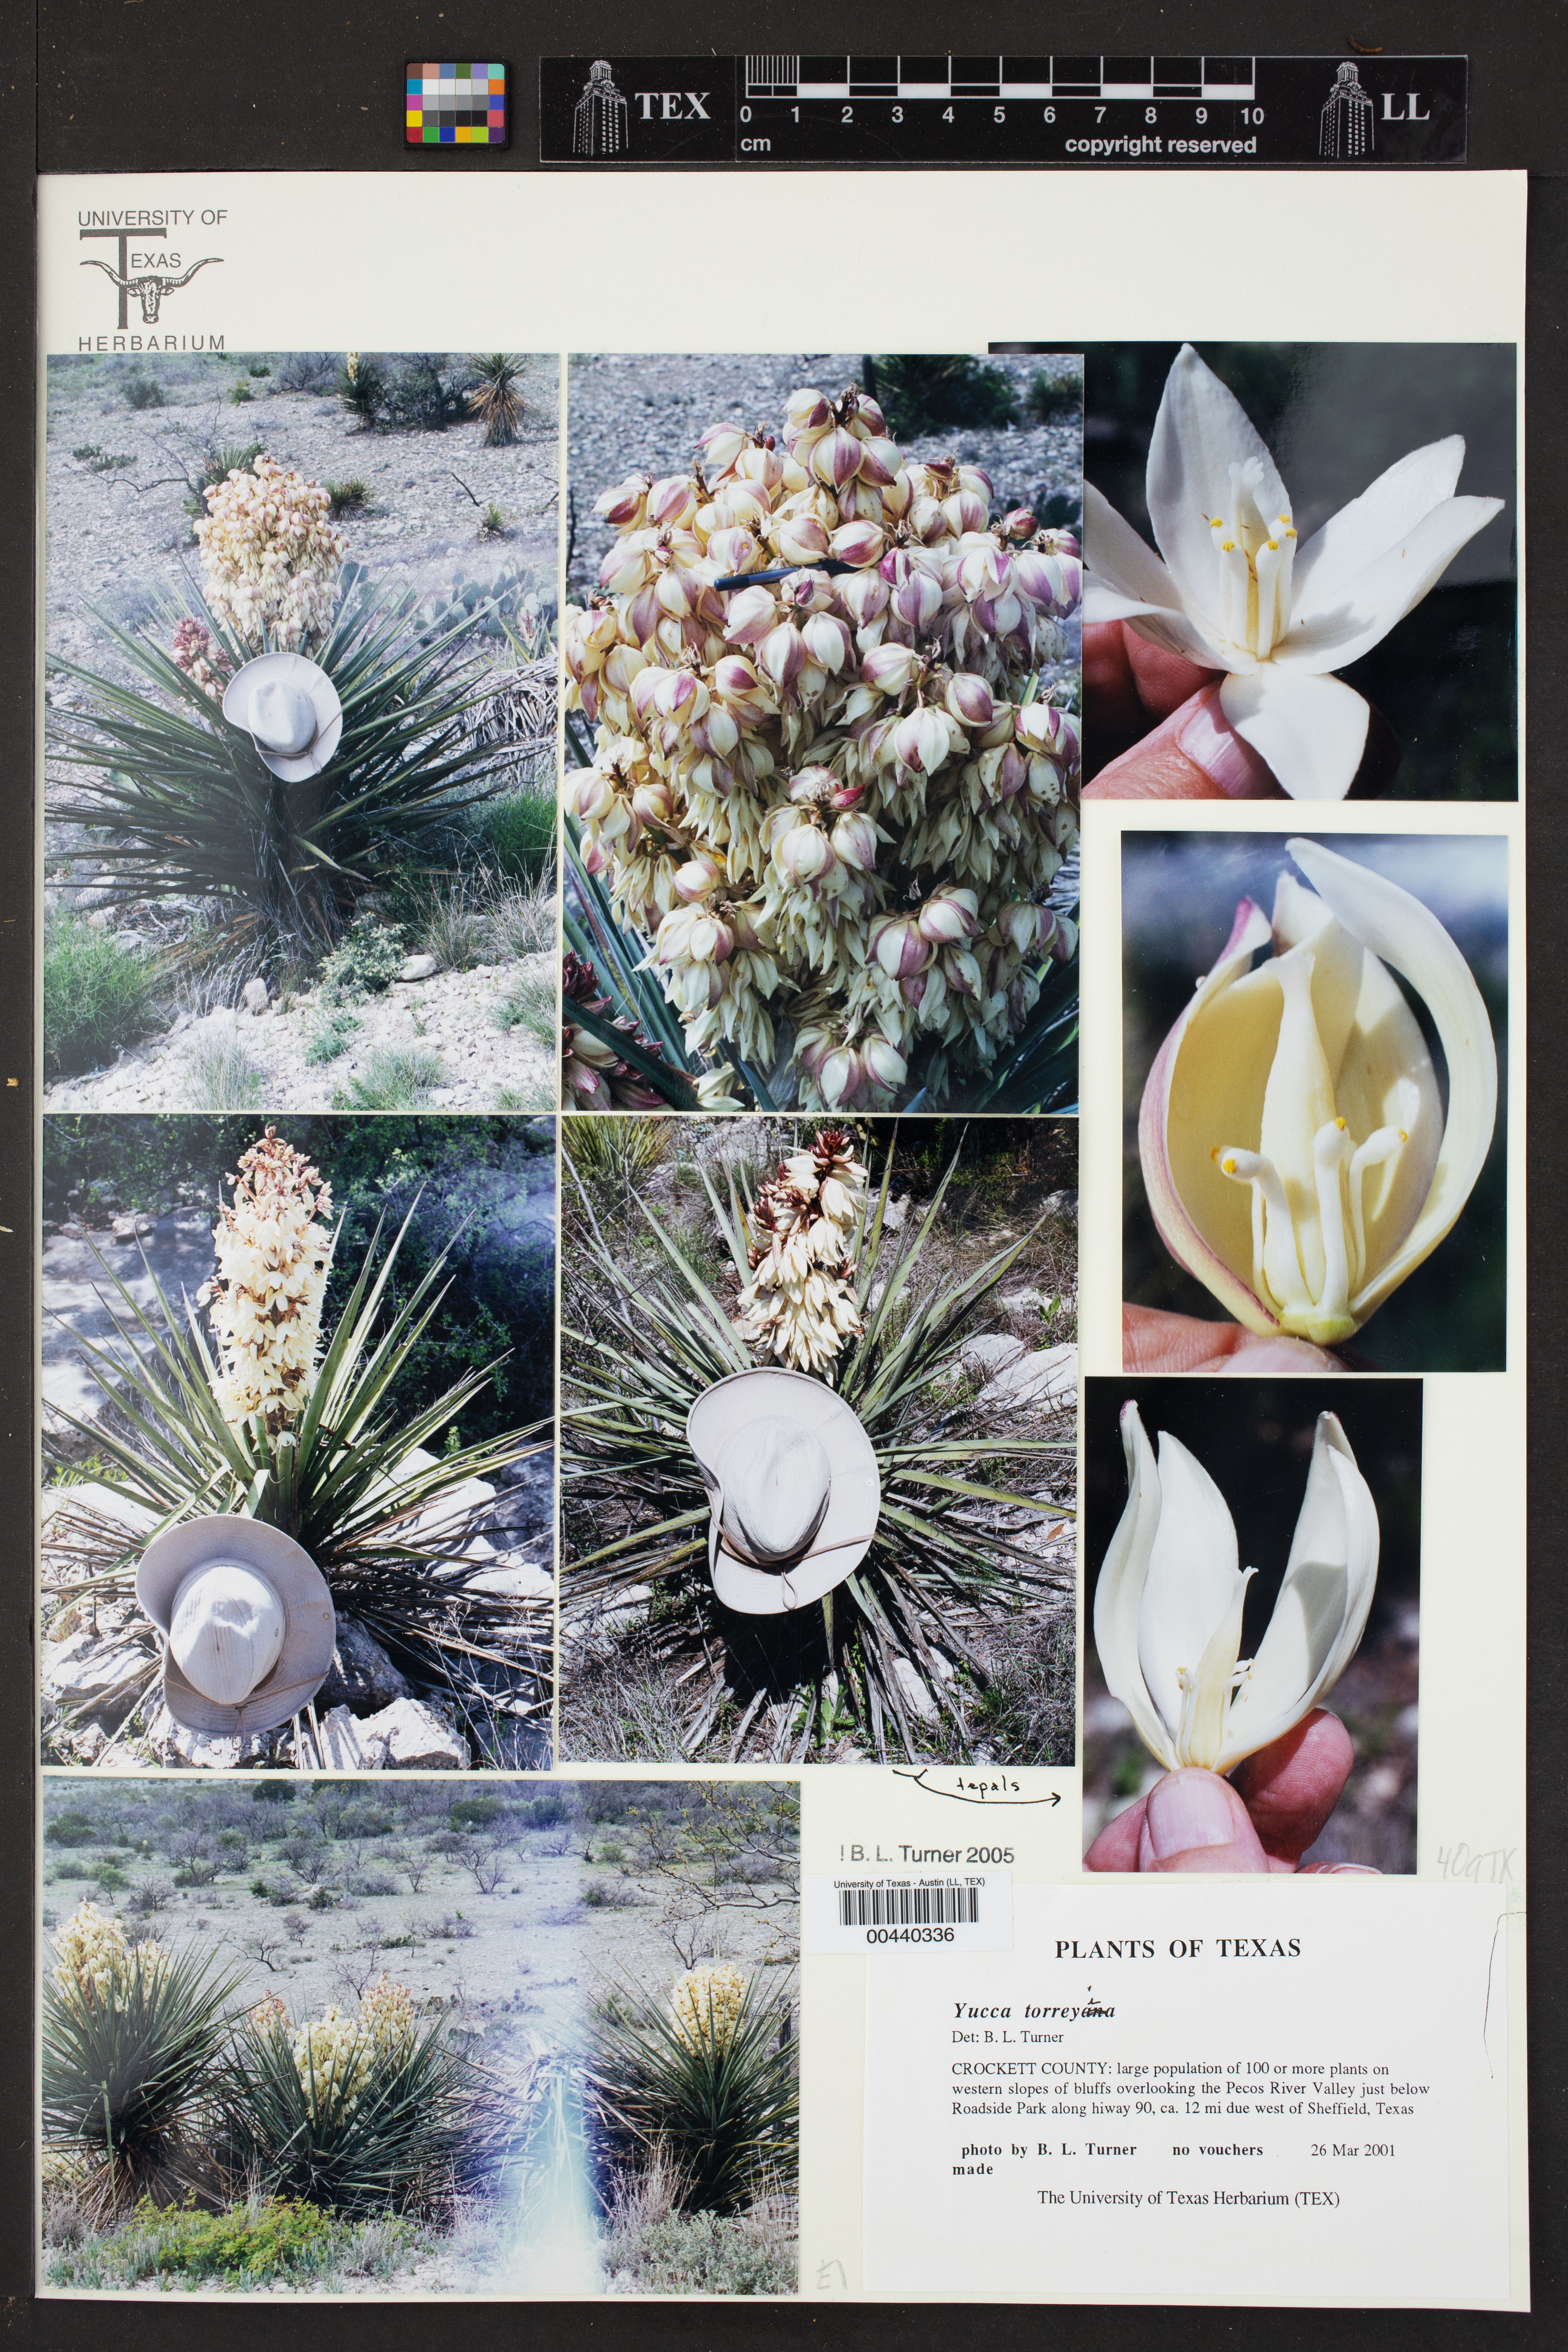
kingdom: Plantae
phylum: Tracheophyta
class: Liliopsida
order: Asparagales
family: Asparagaceae
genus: Yucca
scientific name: Yucca treculiana
